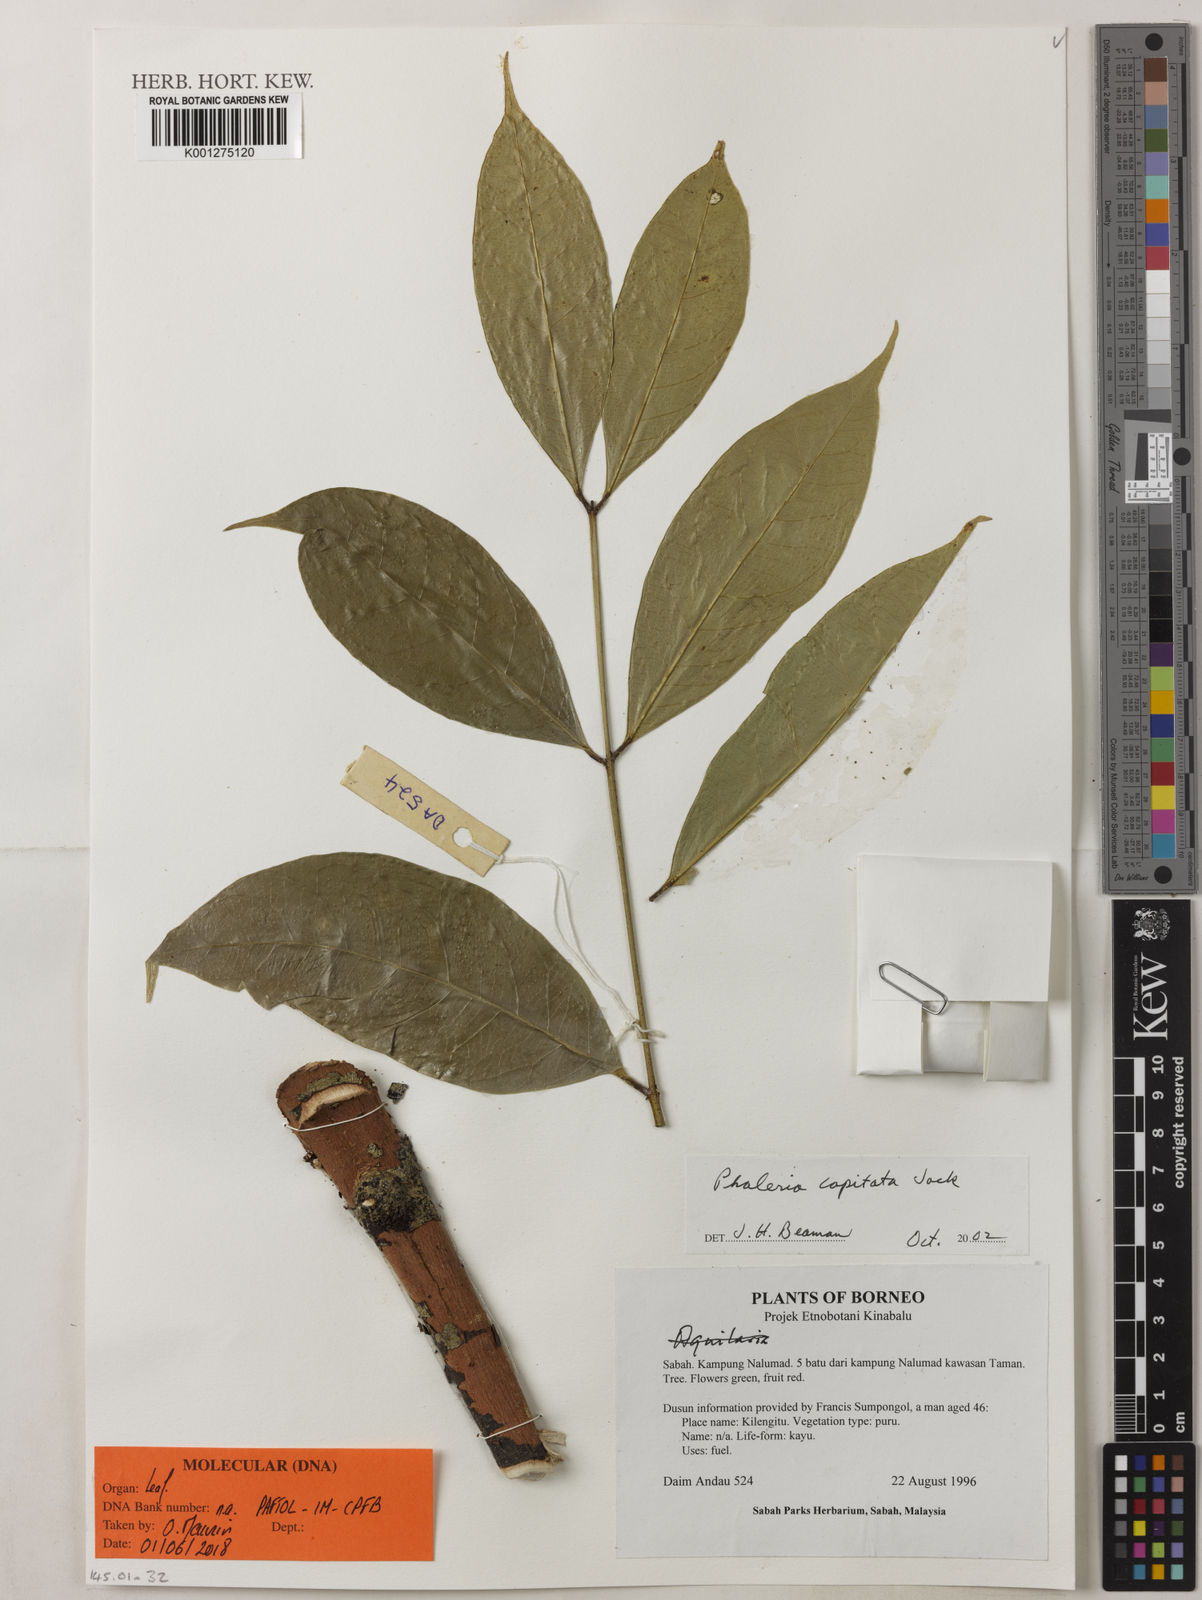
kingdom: Plantae
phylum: Tracheophyta
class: Magnoliopsida
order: Malvales
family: Thymelaeaceae
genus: Phaleria
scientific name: Phaleria capitata
